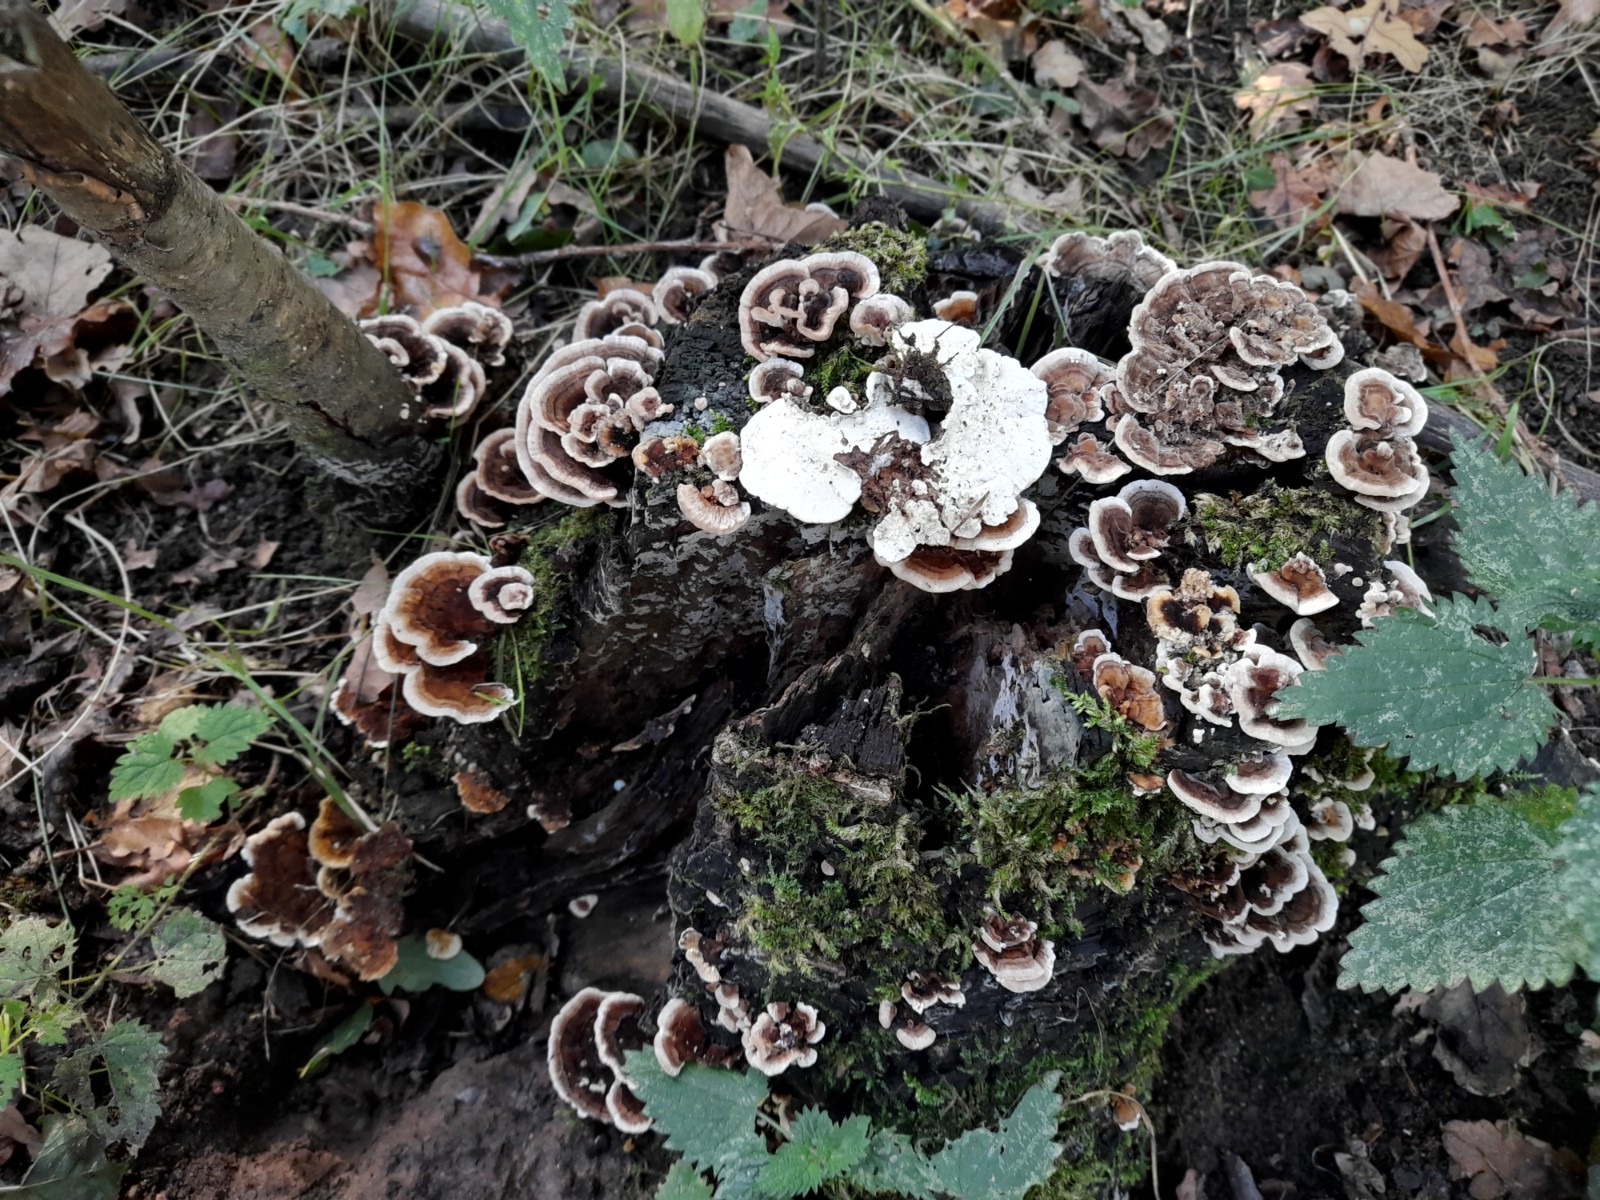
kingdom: Fungi
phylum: Basidiomycota
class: Agaricomycetes
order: Polyporales
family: Polyporaceae
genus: Trametes
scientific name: Trametes versicolor
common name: broget læderporesvamp
